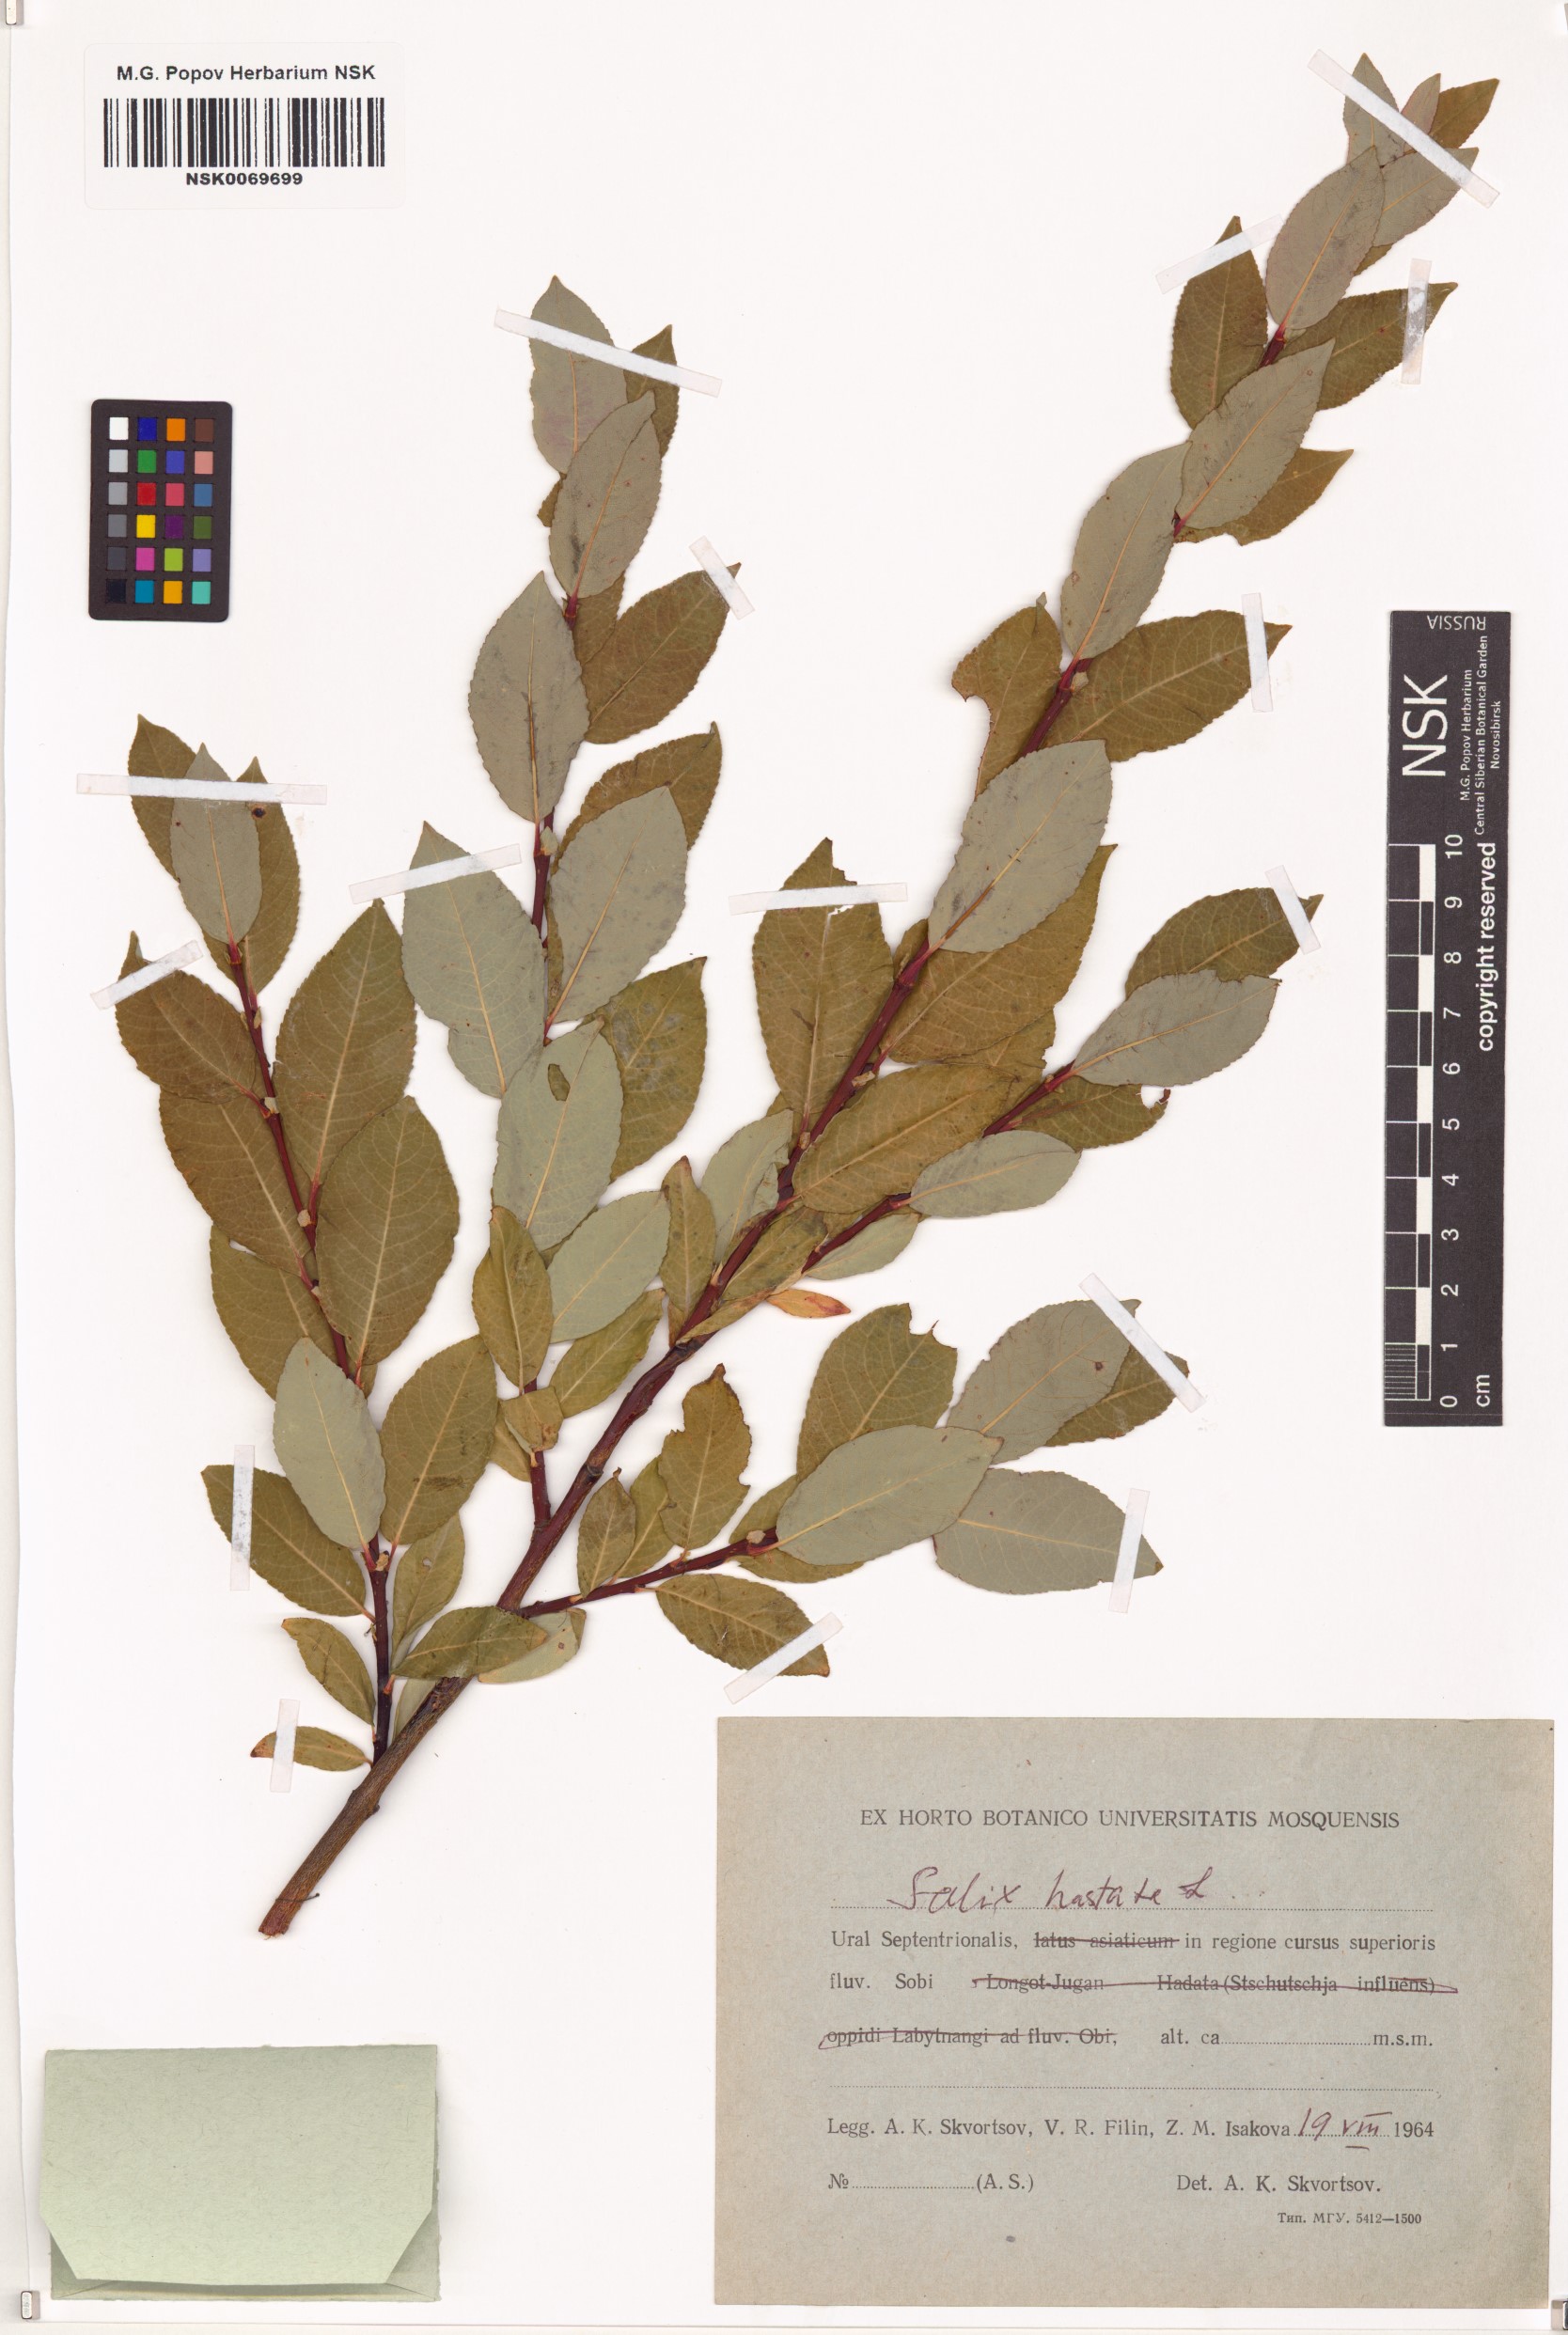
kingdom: Plantae
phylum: Tracheophyta
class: Magnoliopsida
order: Malpighiales
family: Salicaceae
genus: Salix
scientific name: Salix hastata
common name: Halberd willow
